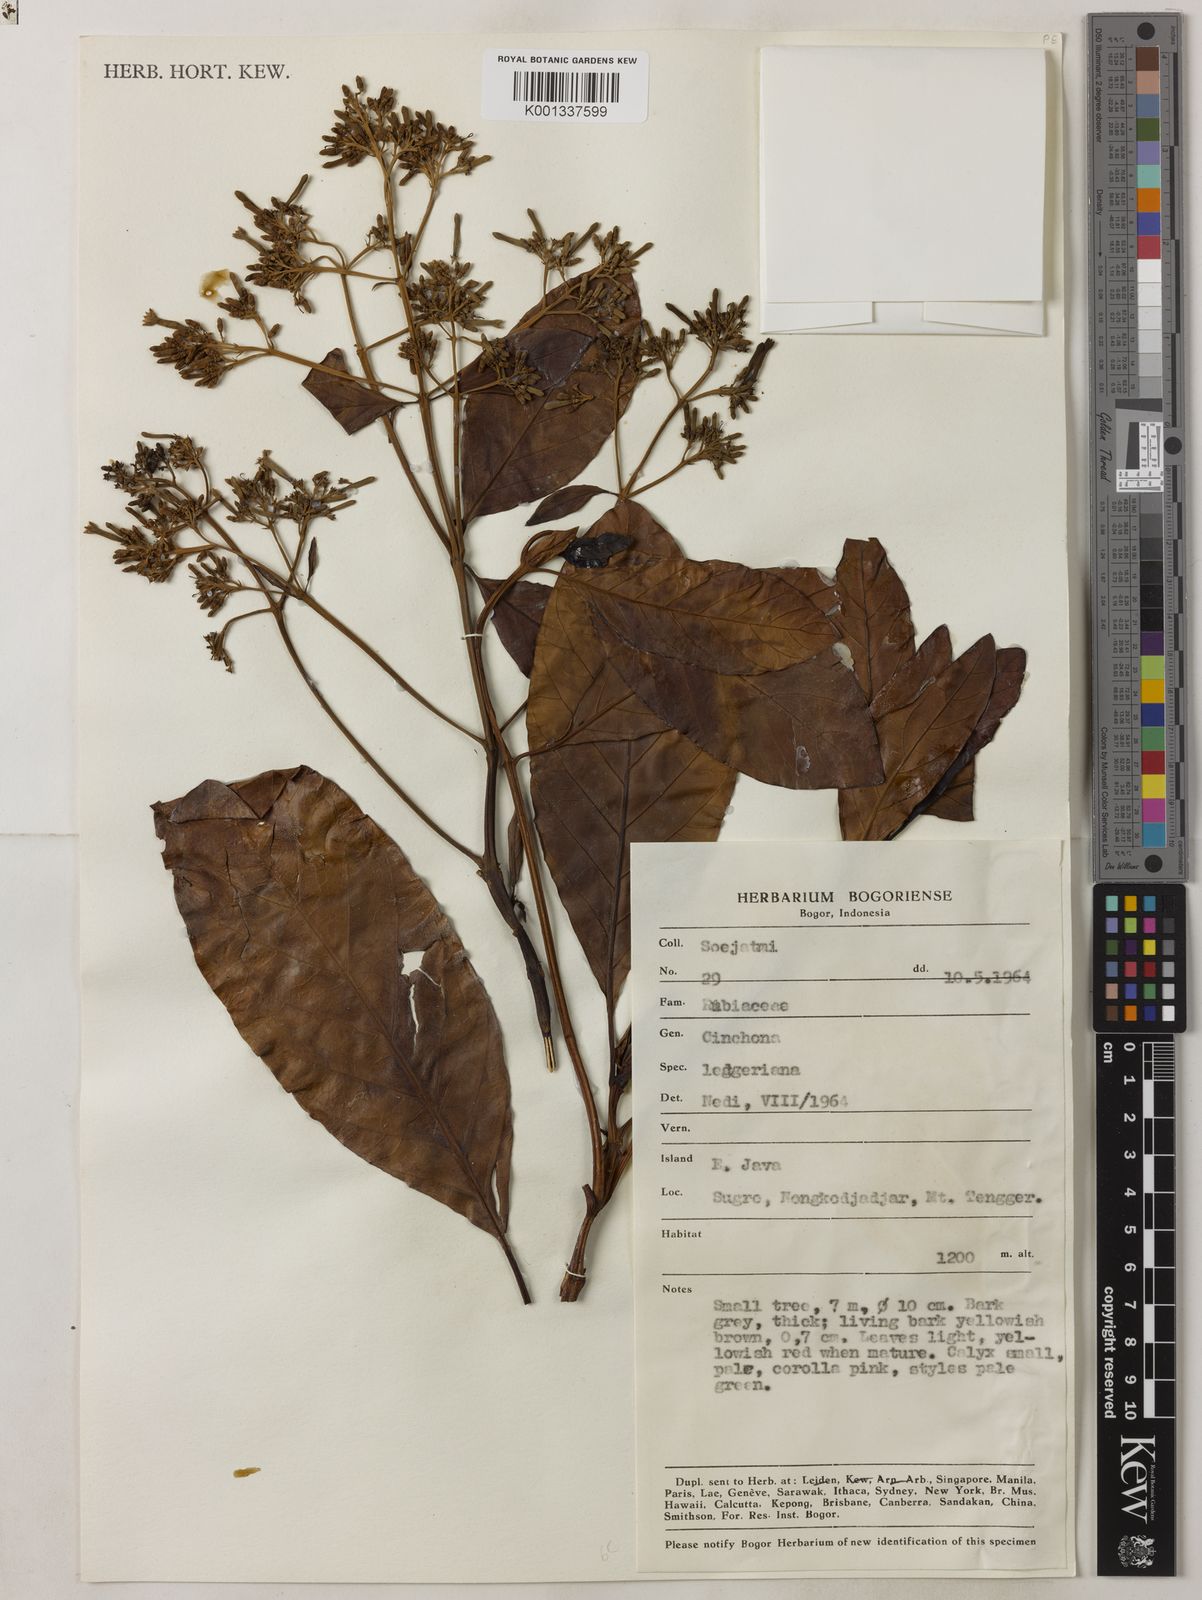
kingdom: Plantae
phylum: Tracheophyta
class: Magnoliopsida
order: Gentianales
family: Rubiaceae
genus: Cinchona
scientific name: Cinchona calisaya
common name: Ledgerbark
